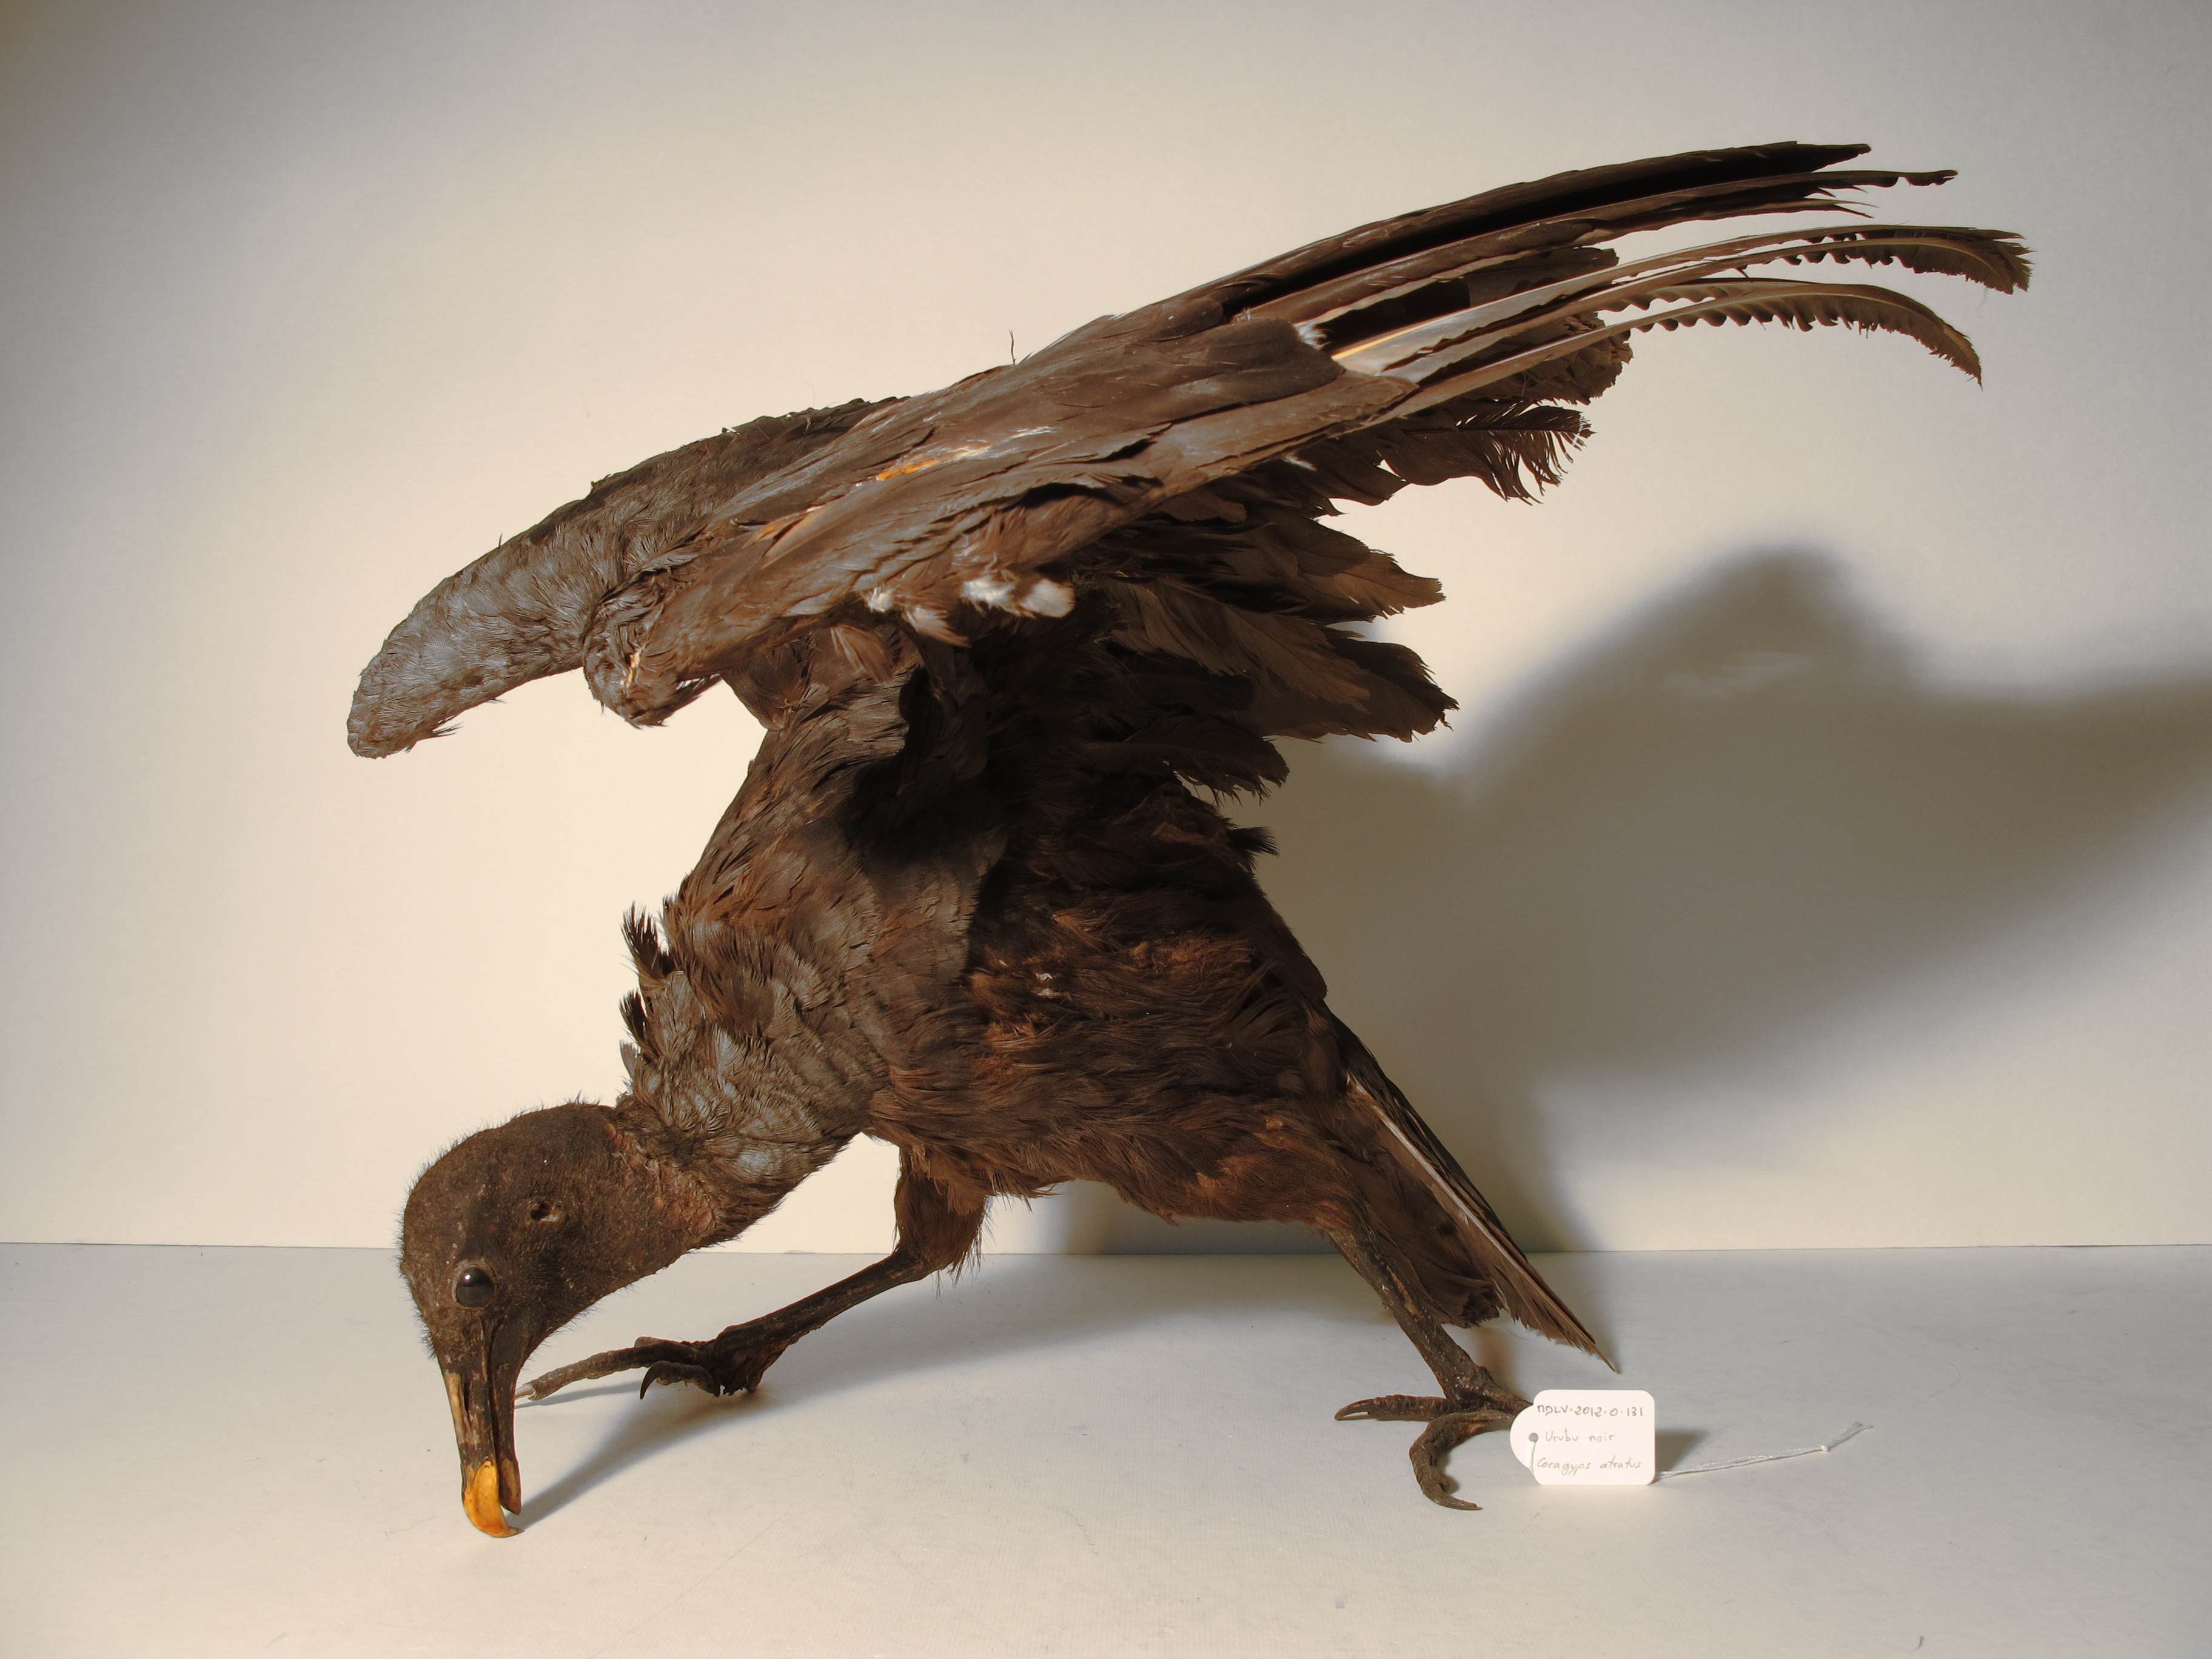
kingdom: Animalia
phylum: Chordata
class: Aves
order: Accipitriformes
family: Cathartidae
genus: Coragyps
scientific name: Coragyps atratus
